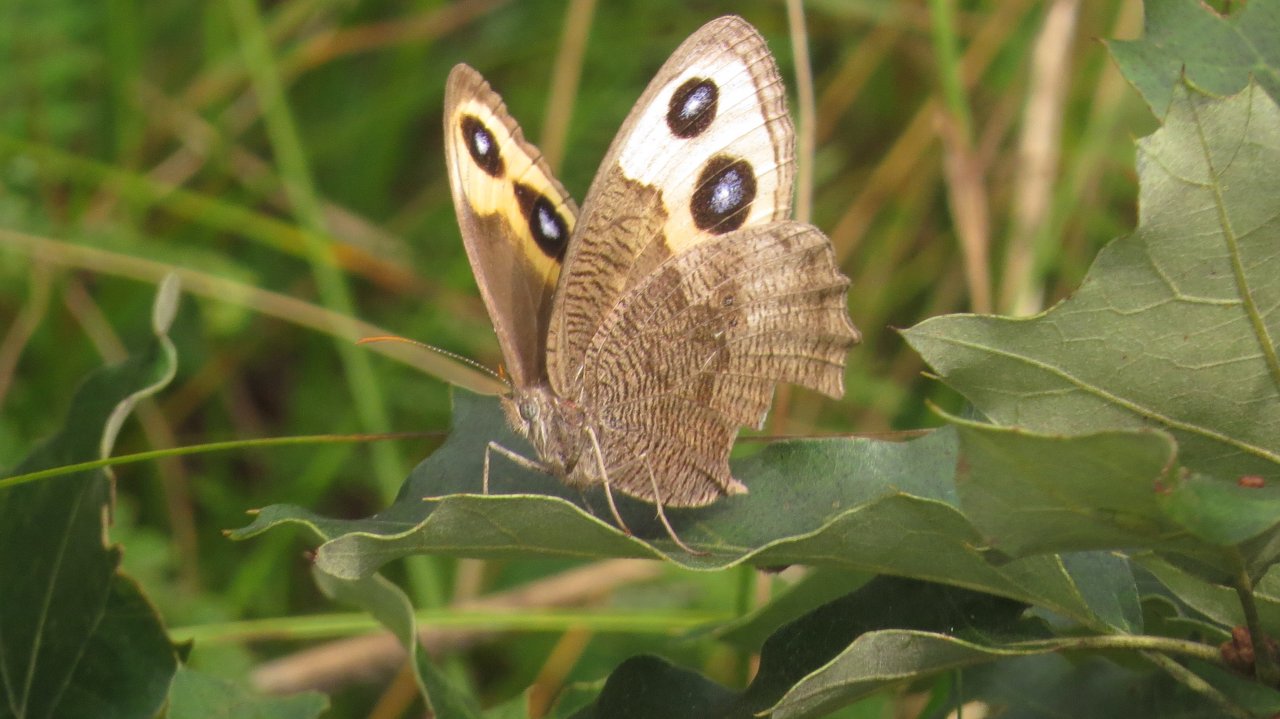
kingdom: Animalia
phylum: Arthropoda
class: Insecta
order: Lepidoptera
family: Nymphalidae
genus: Cercyonis
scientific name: Cercyonis pegala
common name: Common Wood-Nymph
